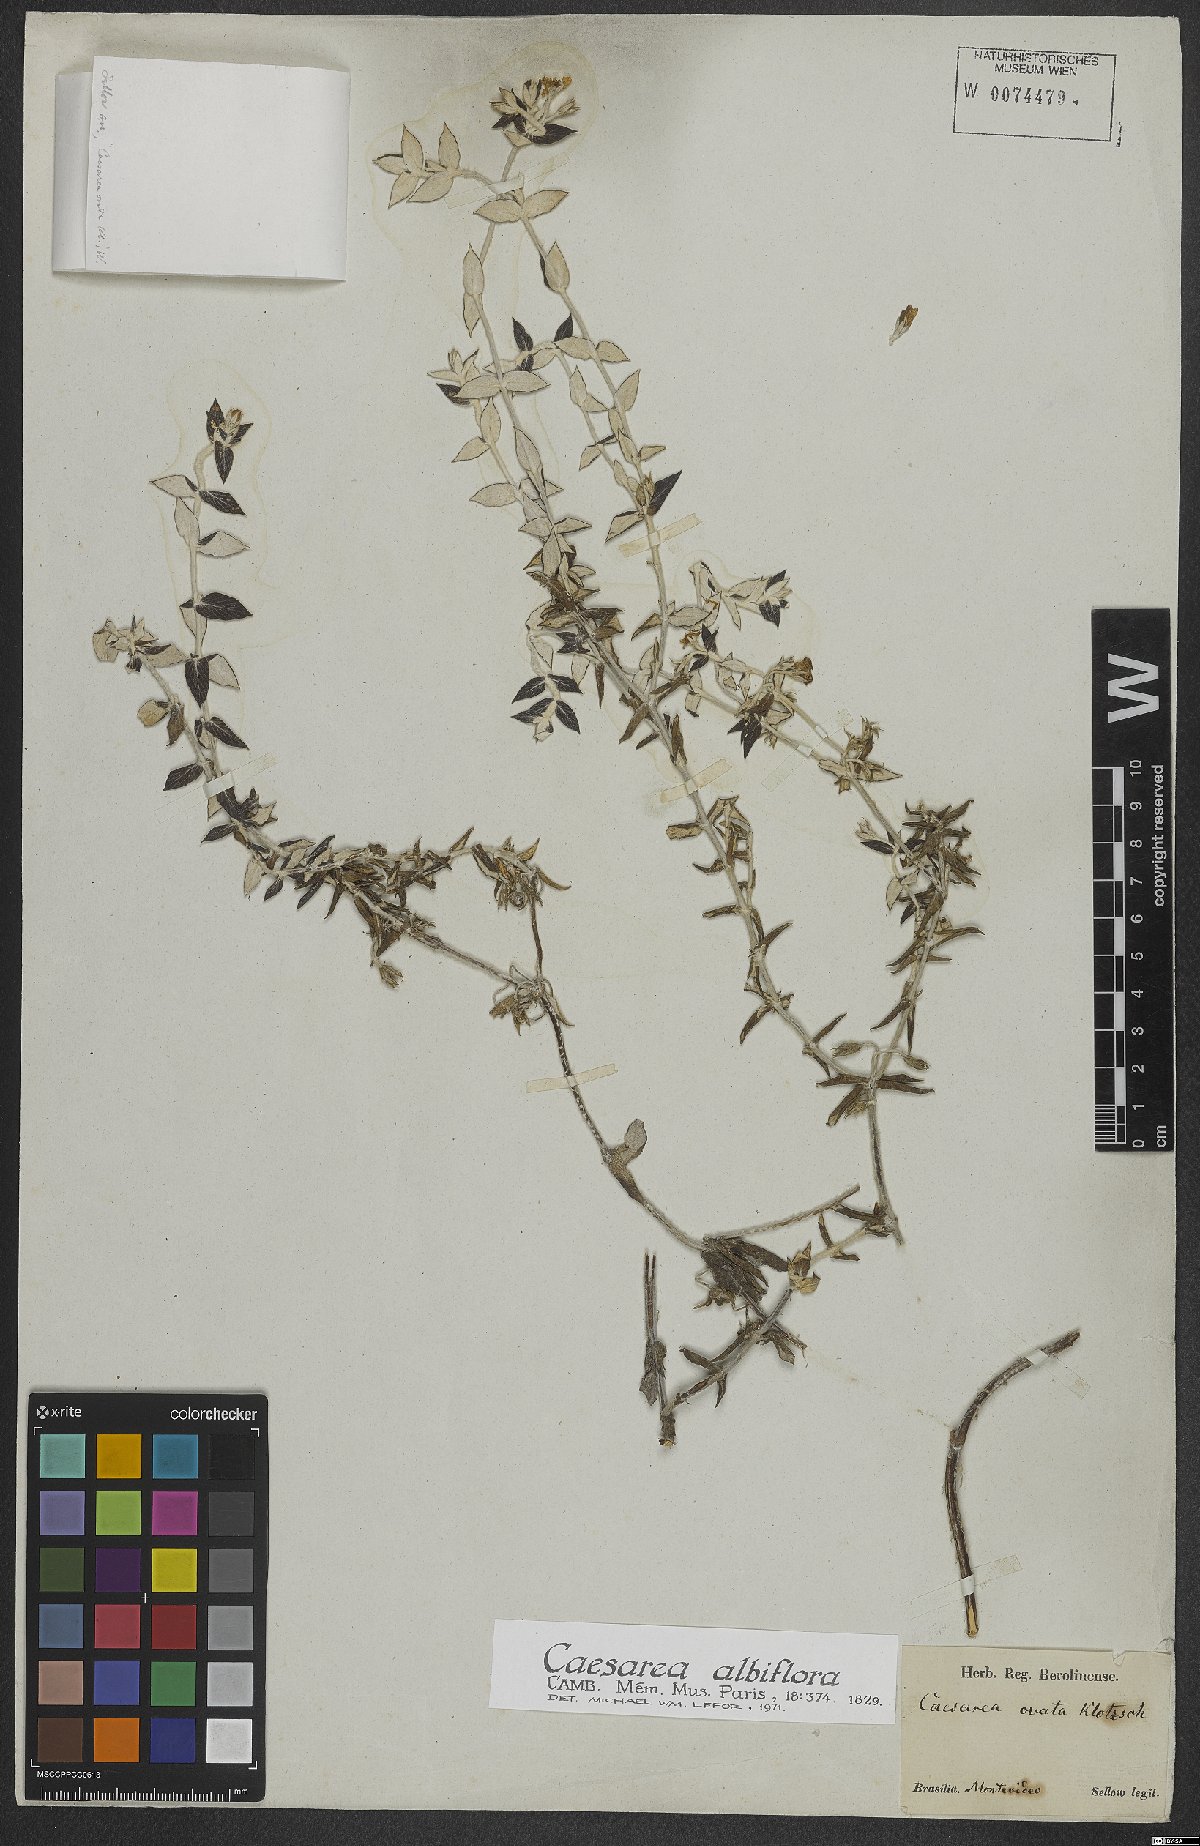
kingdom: Plantae
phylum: Tracheophyta
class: Magnoliopsida
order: Geraniales
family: Vivianiaceae
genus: Viviania
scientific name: Viviania albiflora
